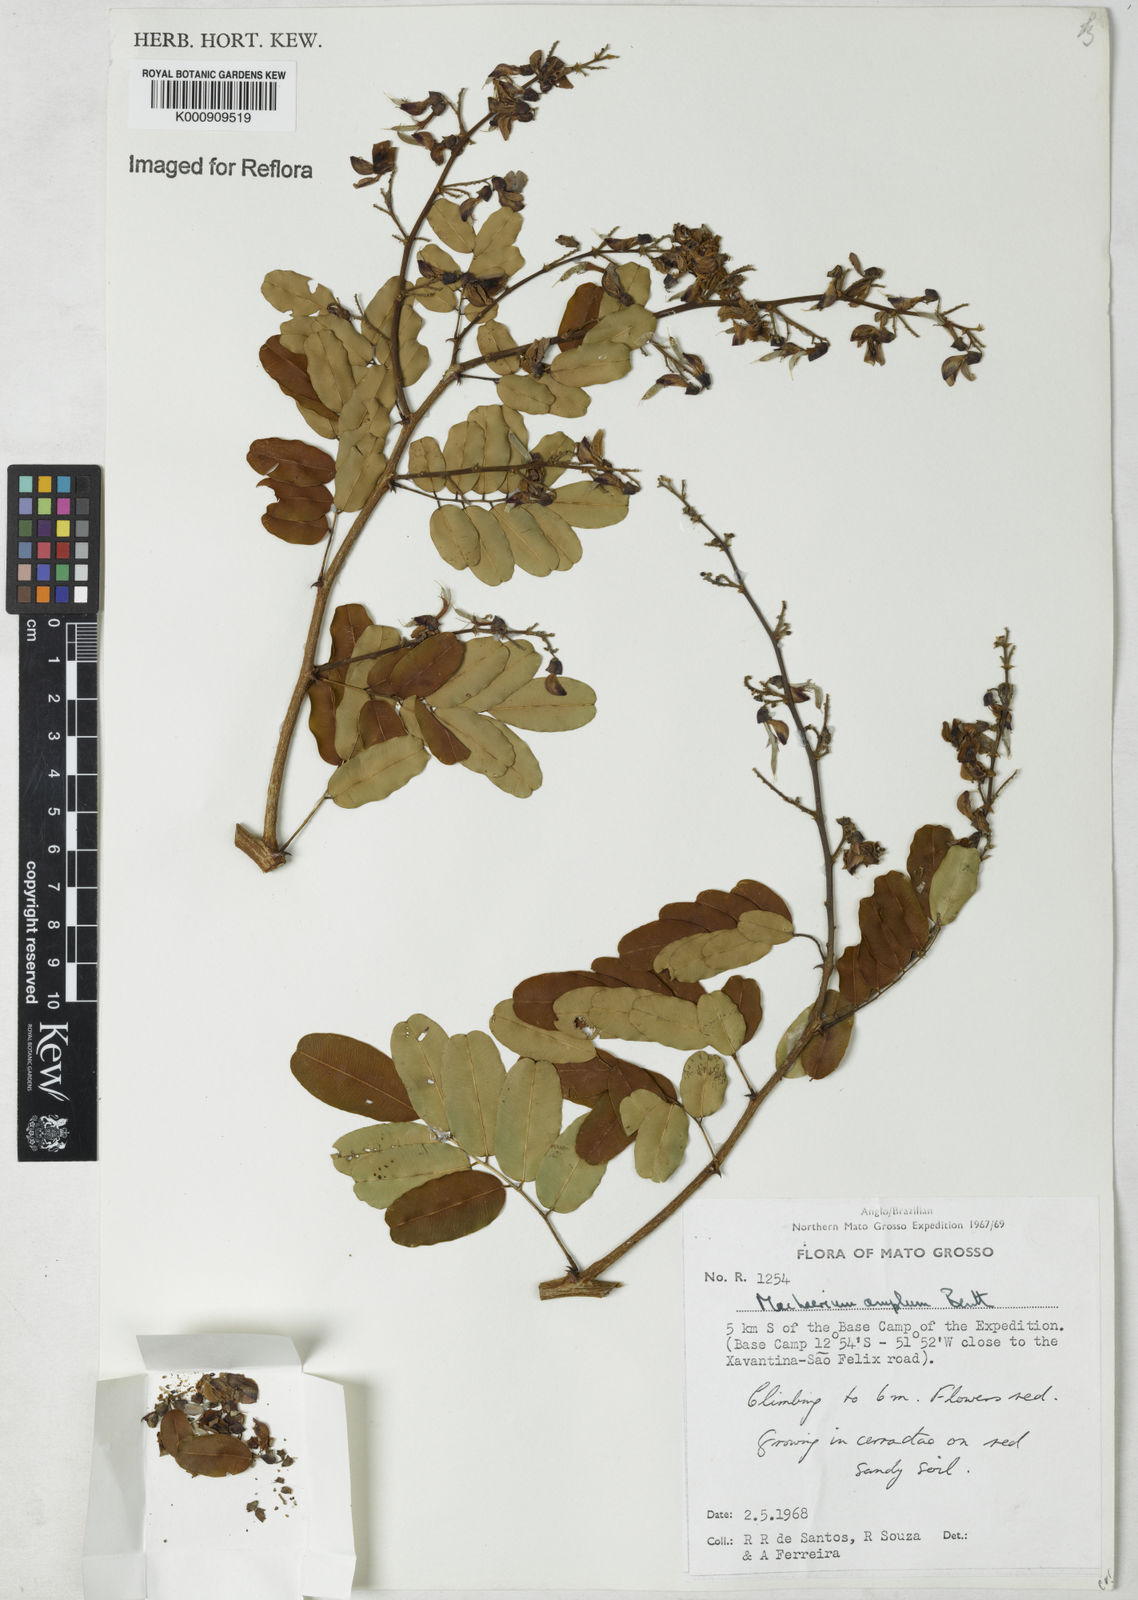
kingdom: Plantae
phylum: Tracheophyta
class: Magnoliopsida
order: Fabales
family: Fabaceae
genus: Machaerium
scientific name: Machaerium amplum
